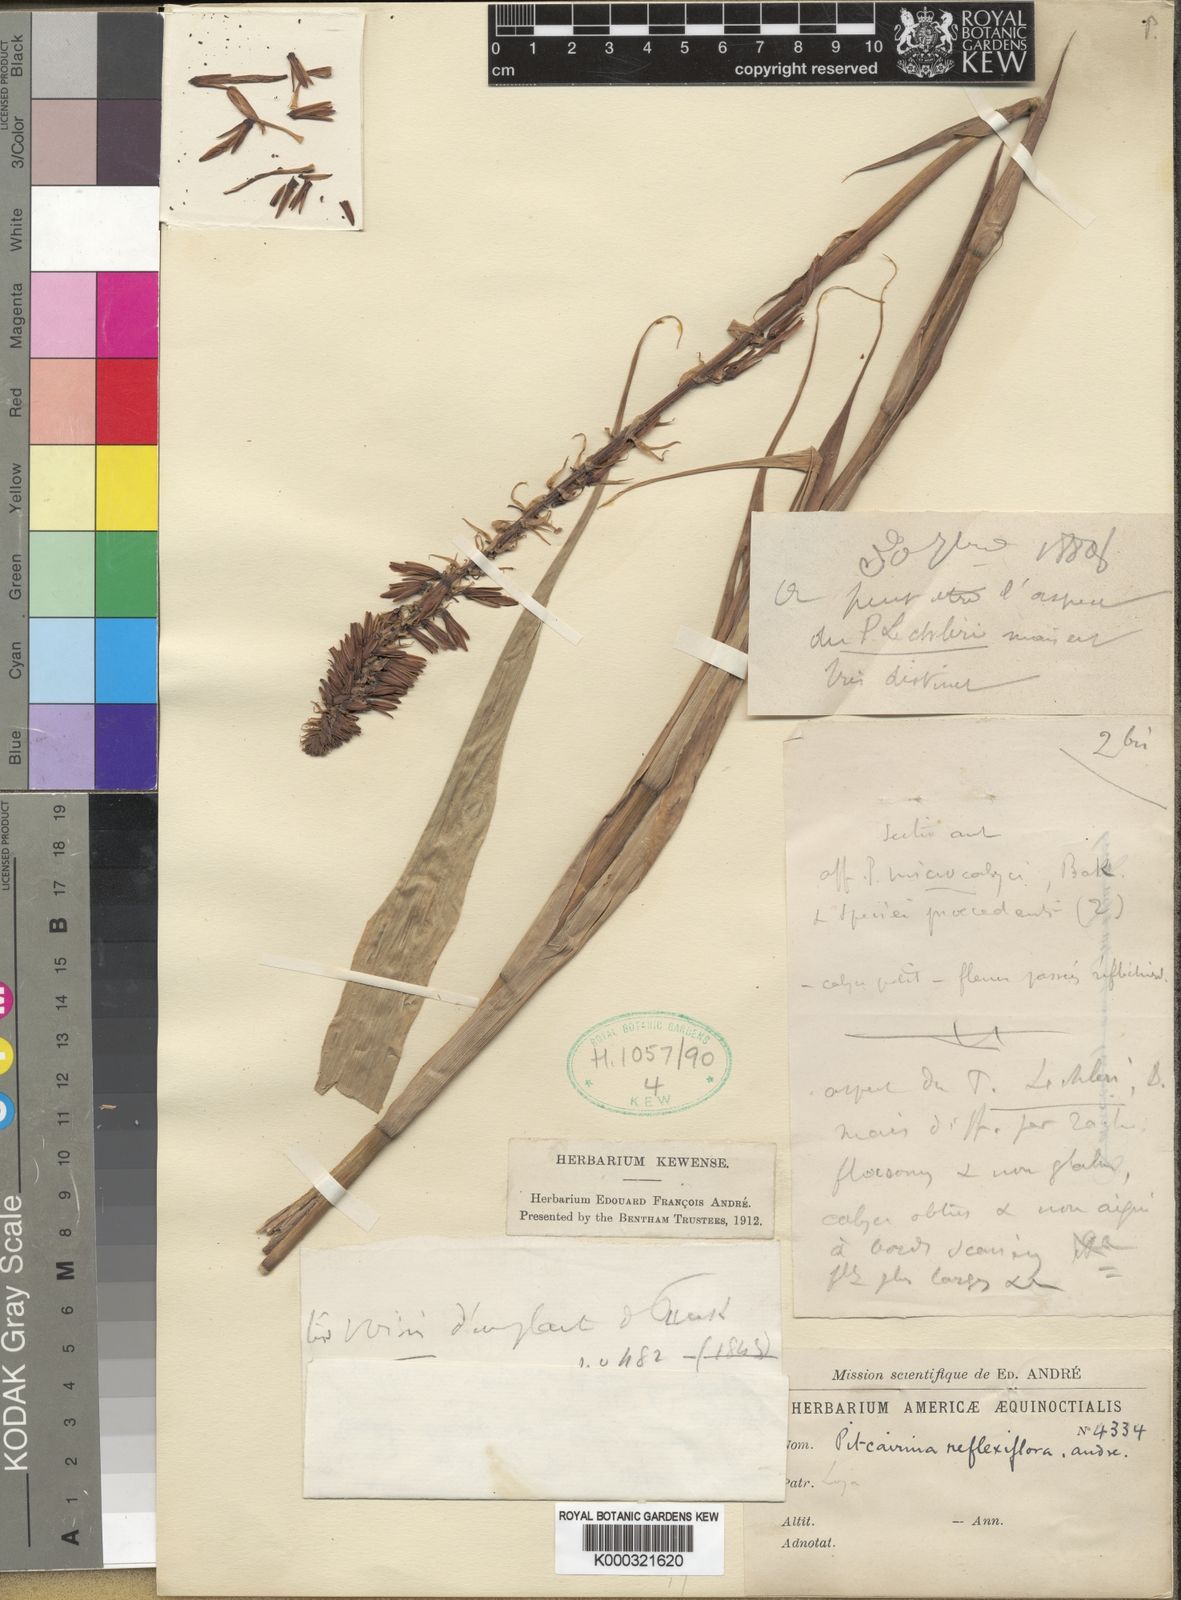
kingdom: Plantae
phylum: Tracheophyta
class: Liliopsida
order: Poales
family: Bromeliaceae
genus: Pitcairnia
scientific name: Pitcairnia
